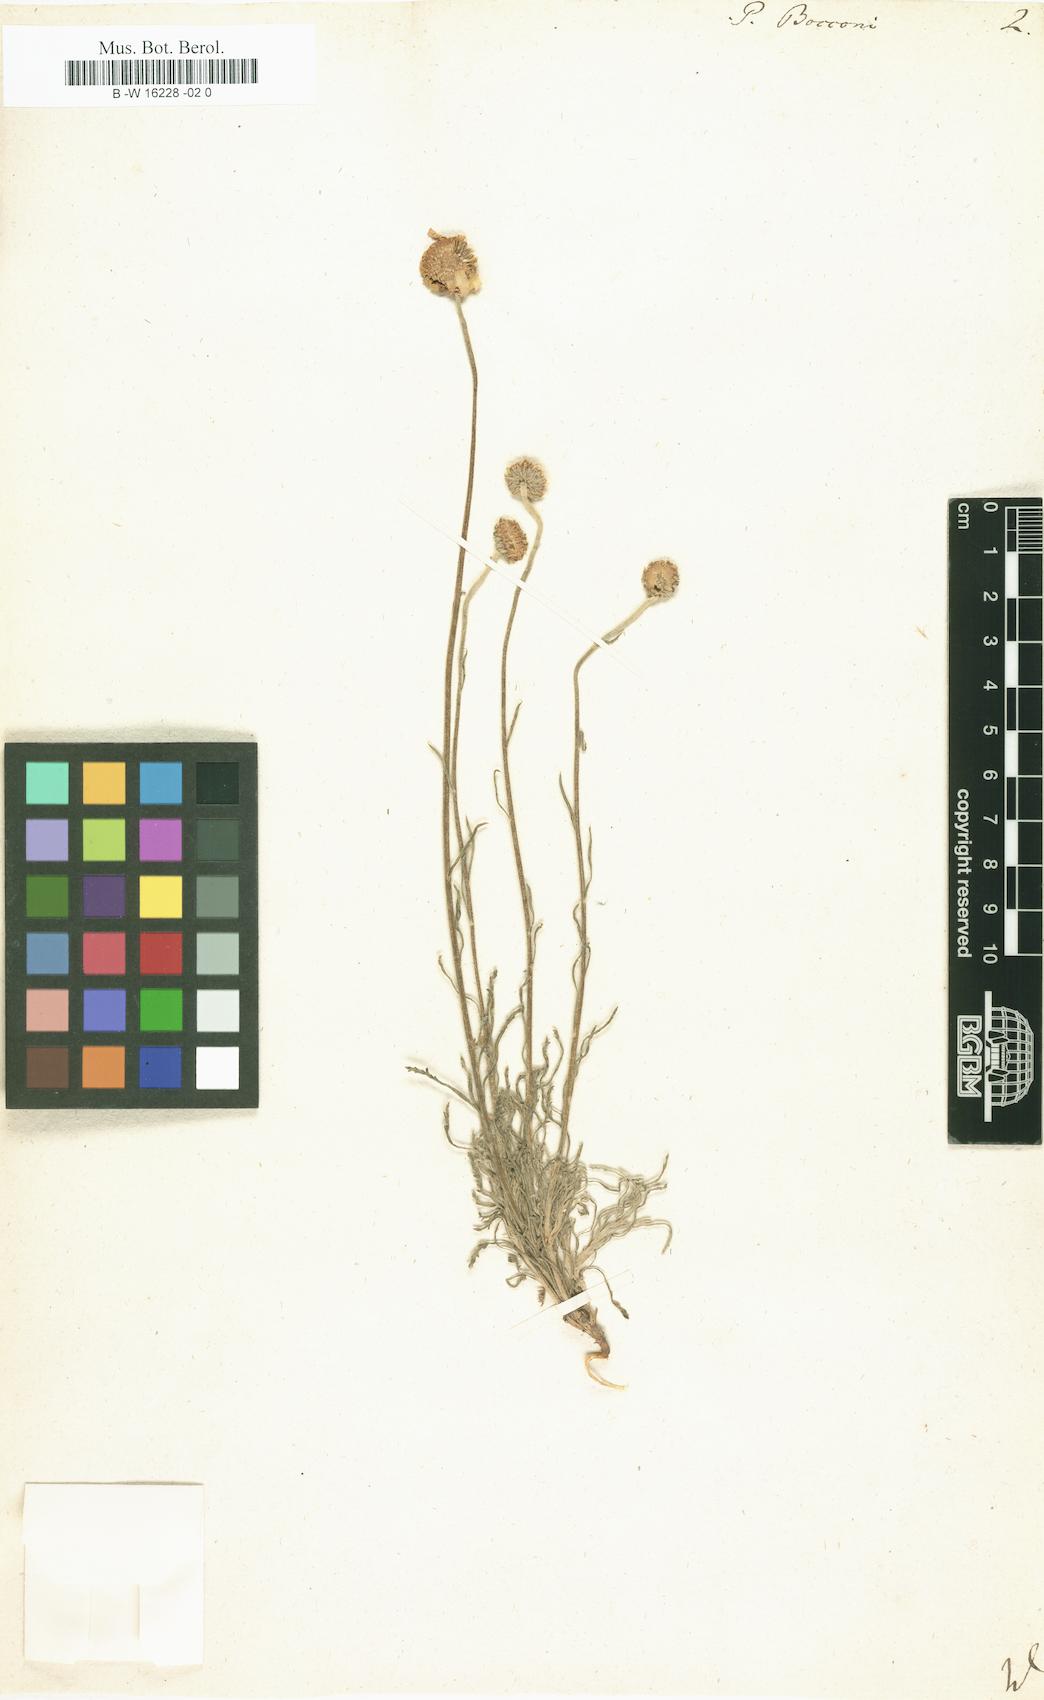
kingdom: Plantae
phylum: Tracheophyta
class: Magnoliopsida
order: Asterales
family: Asteraceae
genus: Tanacetum
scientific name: Tanacetum Pyrethrum bocconei
